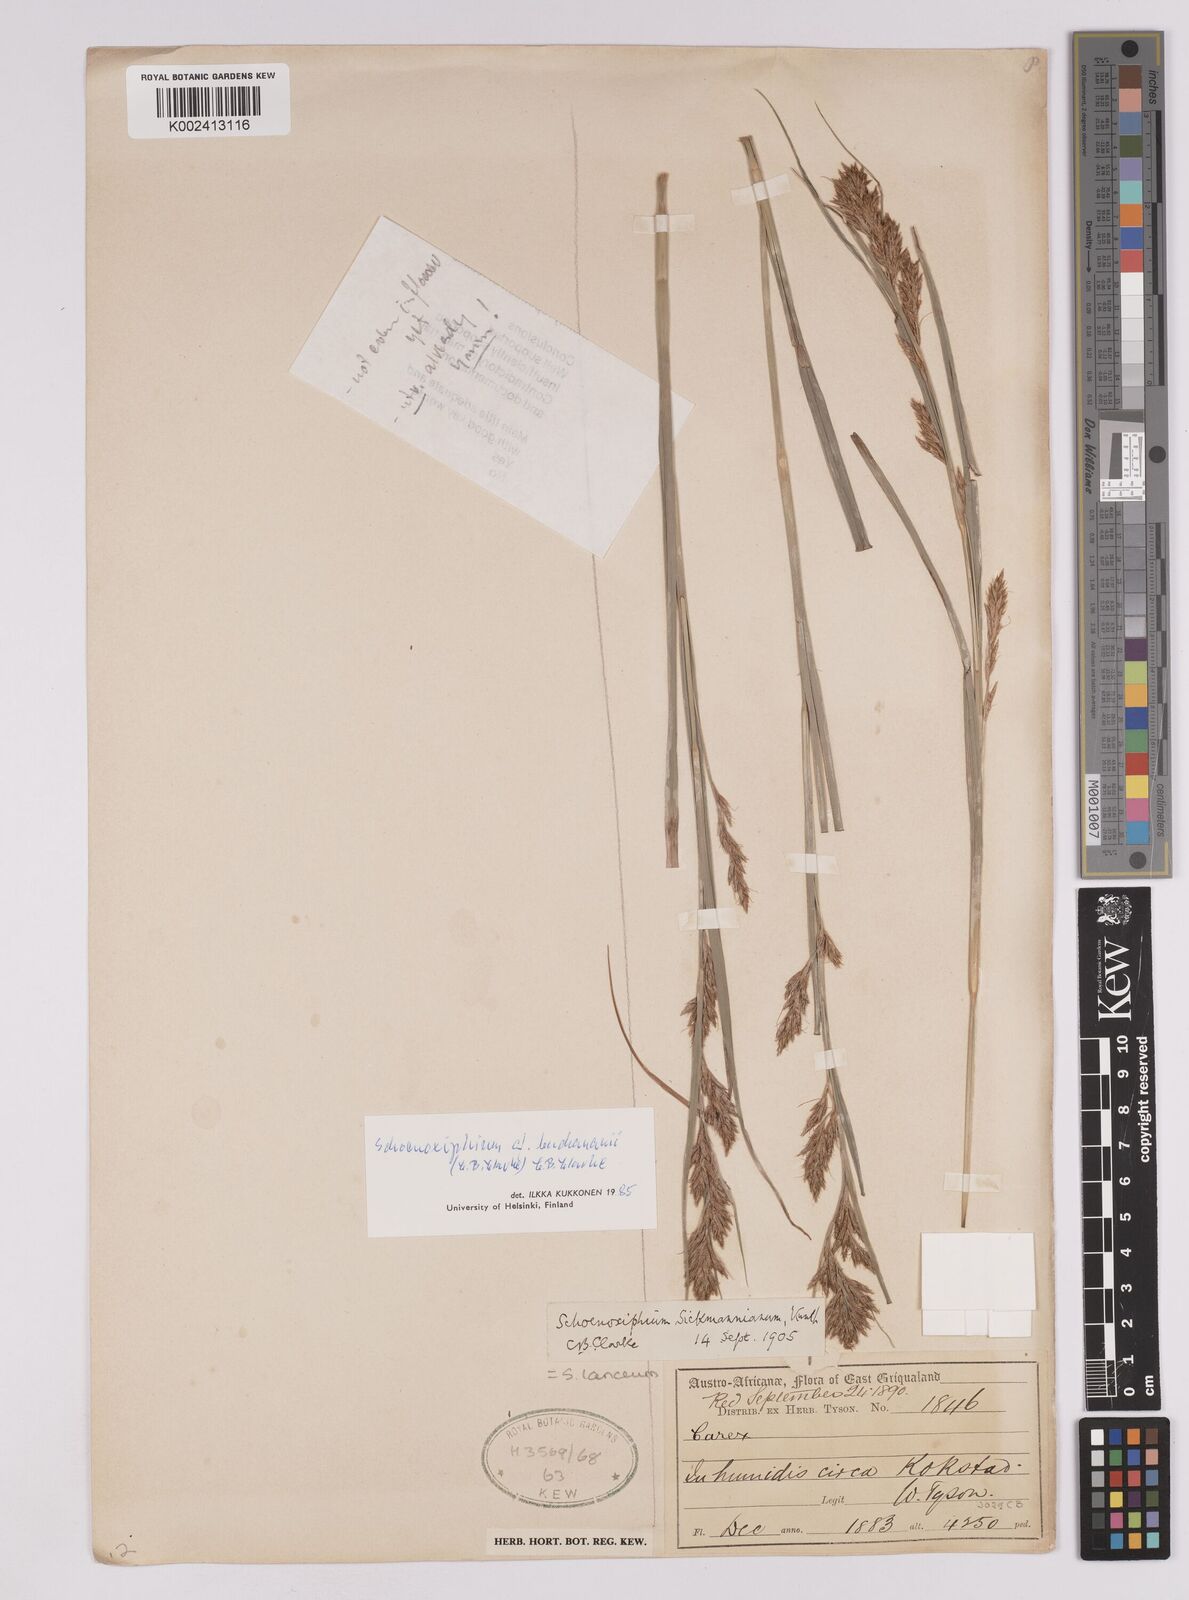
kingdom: Plantae
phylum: Tracheophyta
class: Liliopsida
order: Poales
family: Cyperaceae
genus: Carex
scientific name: Carex kukkoneniana
